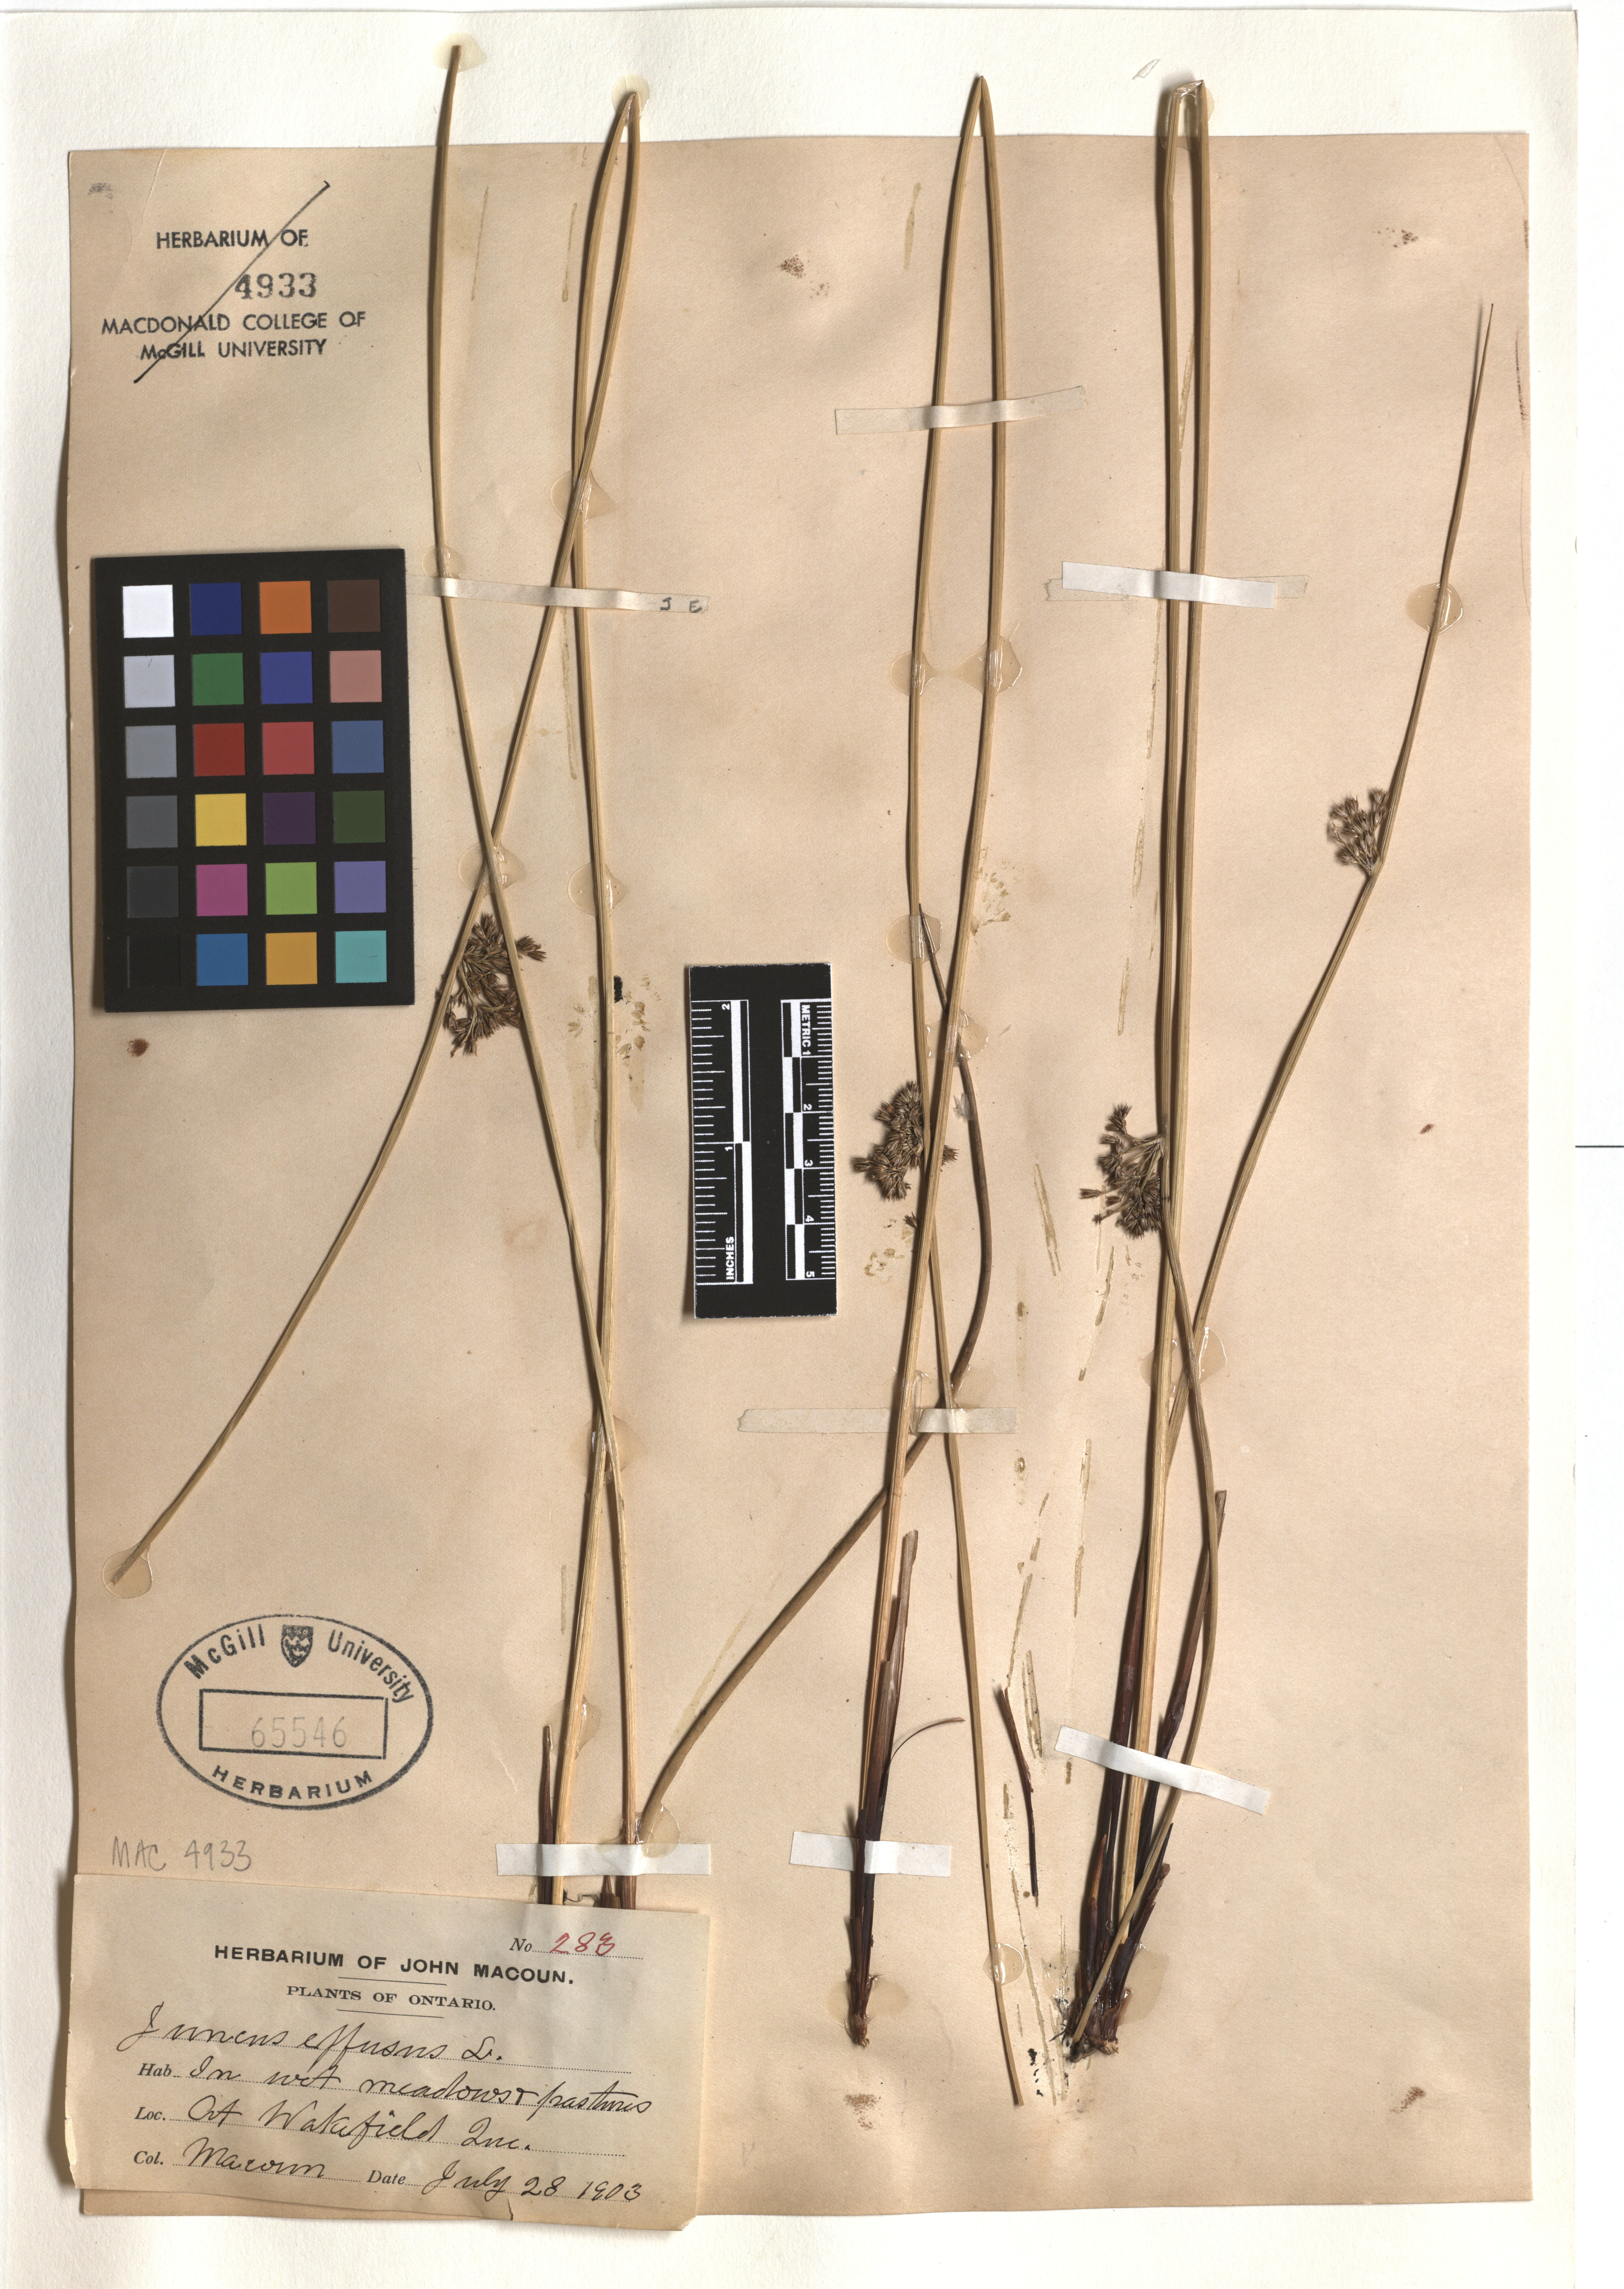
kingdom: Plantae
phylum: Tracheophyta
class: Liliopsida
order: Poales
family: Juncaceae
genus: Juncus
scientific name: Juncus effusus
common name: Soft rush
